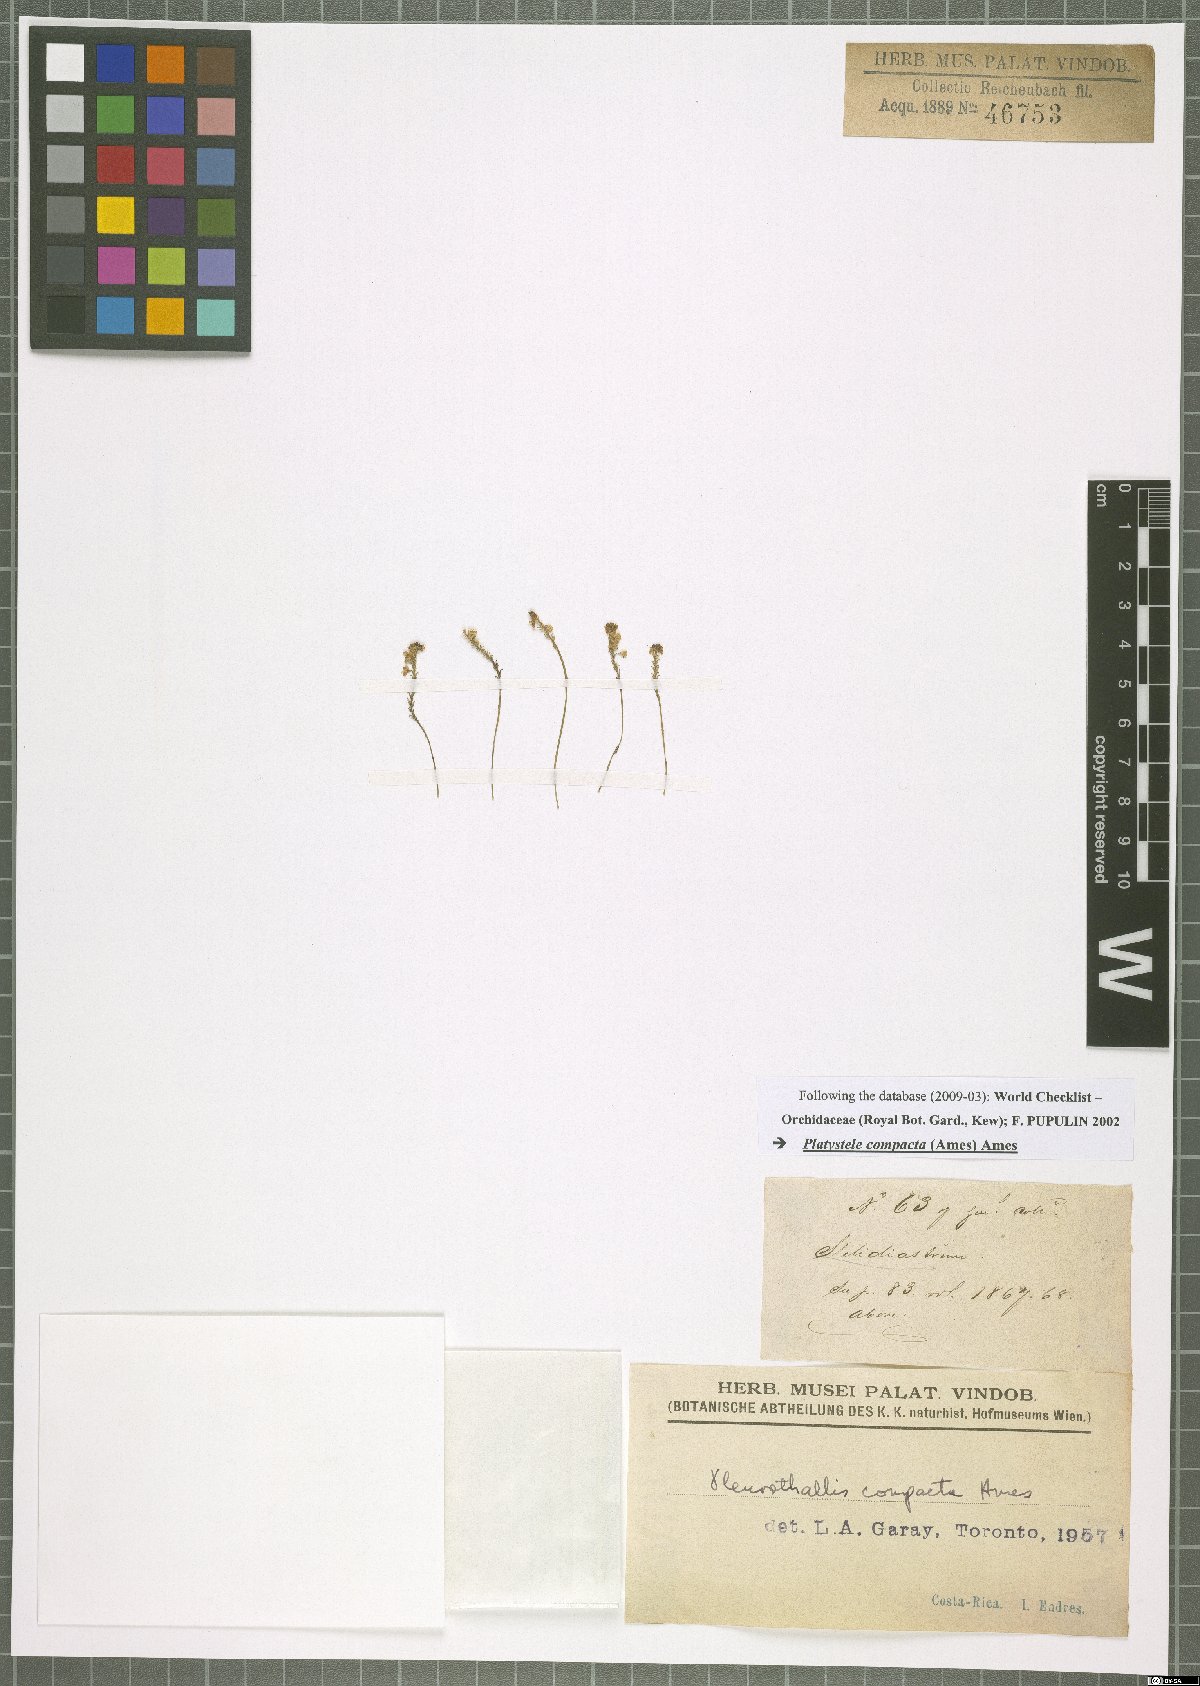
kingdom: Plantae
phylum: Tracheophyta
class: Liliopsida
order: Asparagales
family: Orchidaceae
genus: Platystele
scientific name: Platystele compacta
